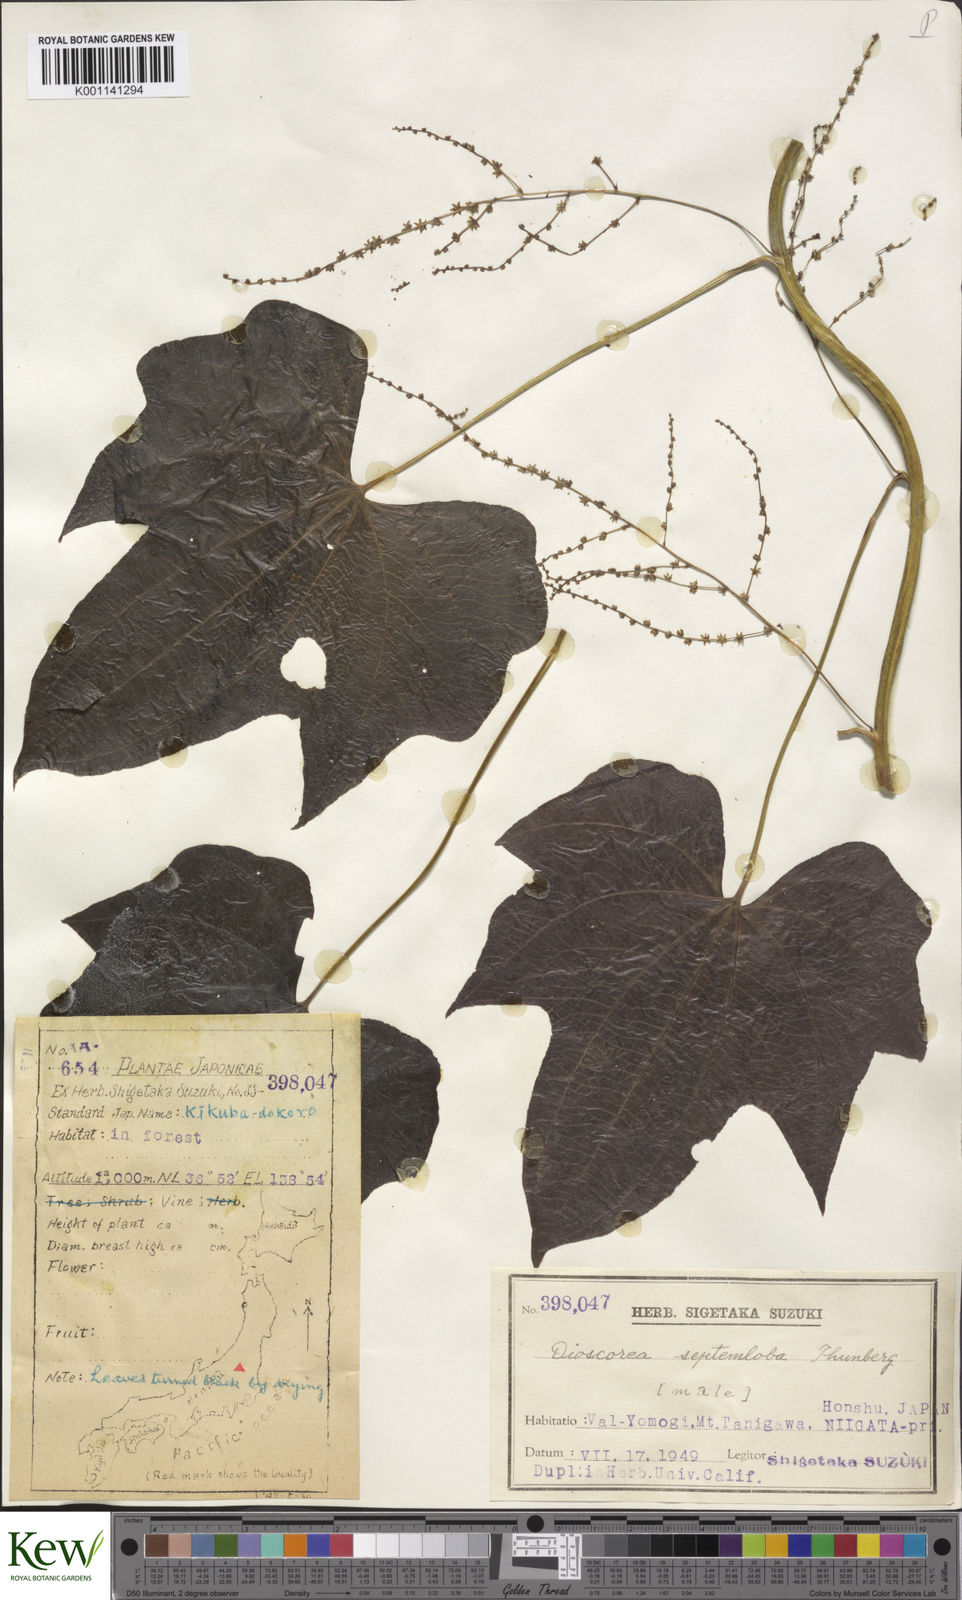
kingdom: Plantae
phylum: Tracheophyta
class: Liliopsida
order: Dioscoreales
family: Dioscoreaceae
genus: Dioscorea
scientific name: Dioscorea septemloba
